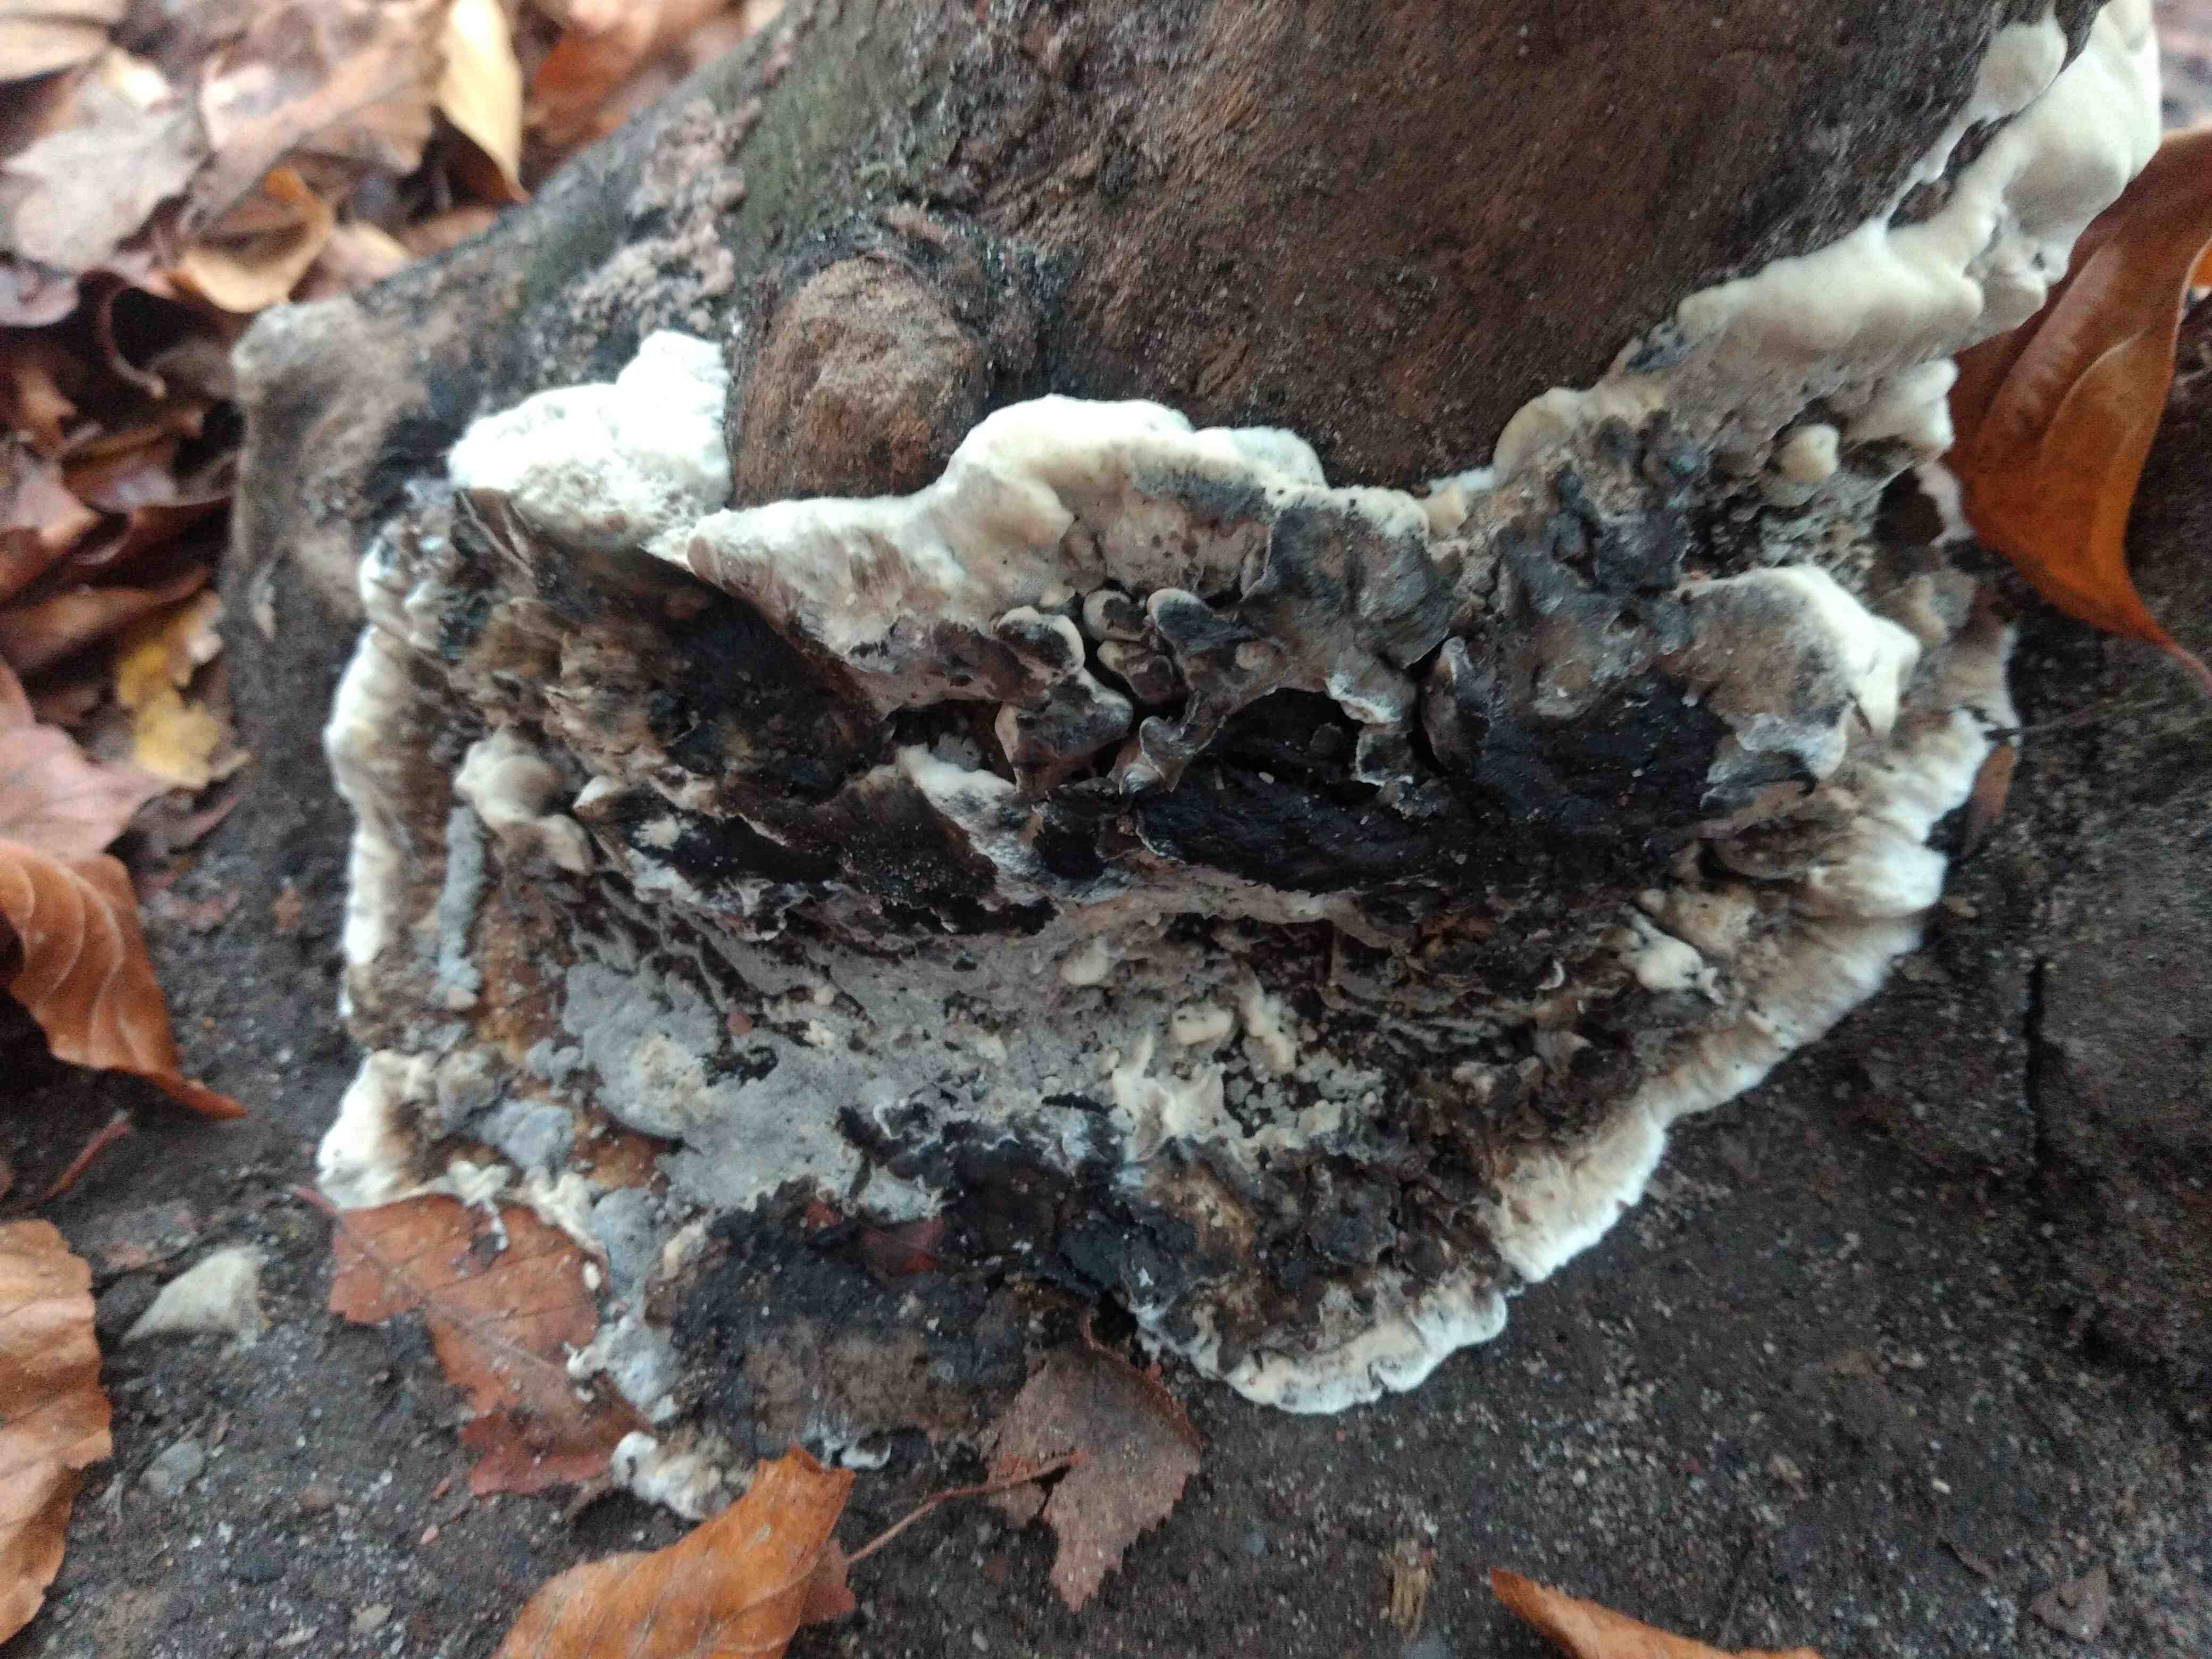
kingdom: Fungi
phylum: Basidiomycota
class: Agaricomycetes
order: Polyporales
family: Phanerochaetaceae
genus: Bjerkandera
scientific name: Bjerkandera adusta
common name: sveden sodporesvamp
